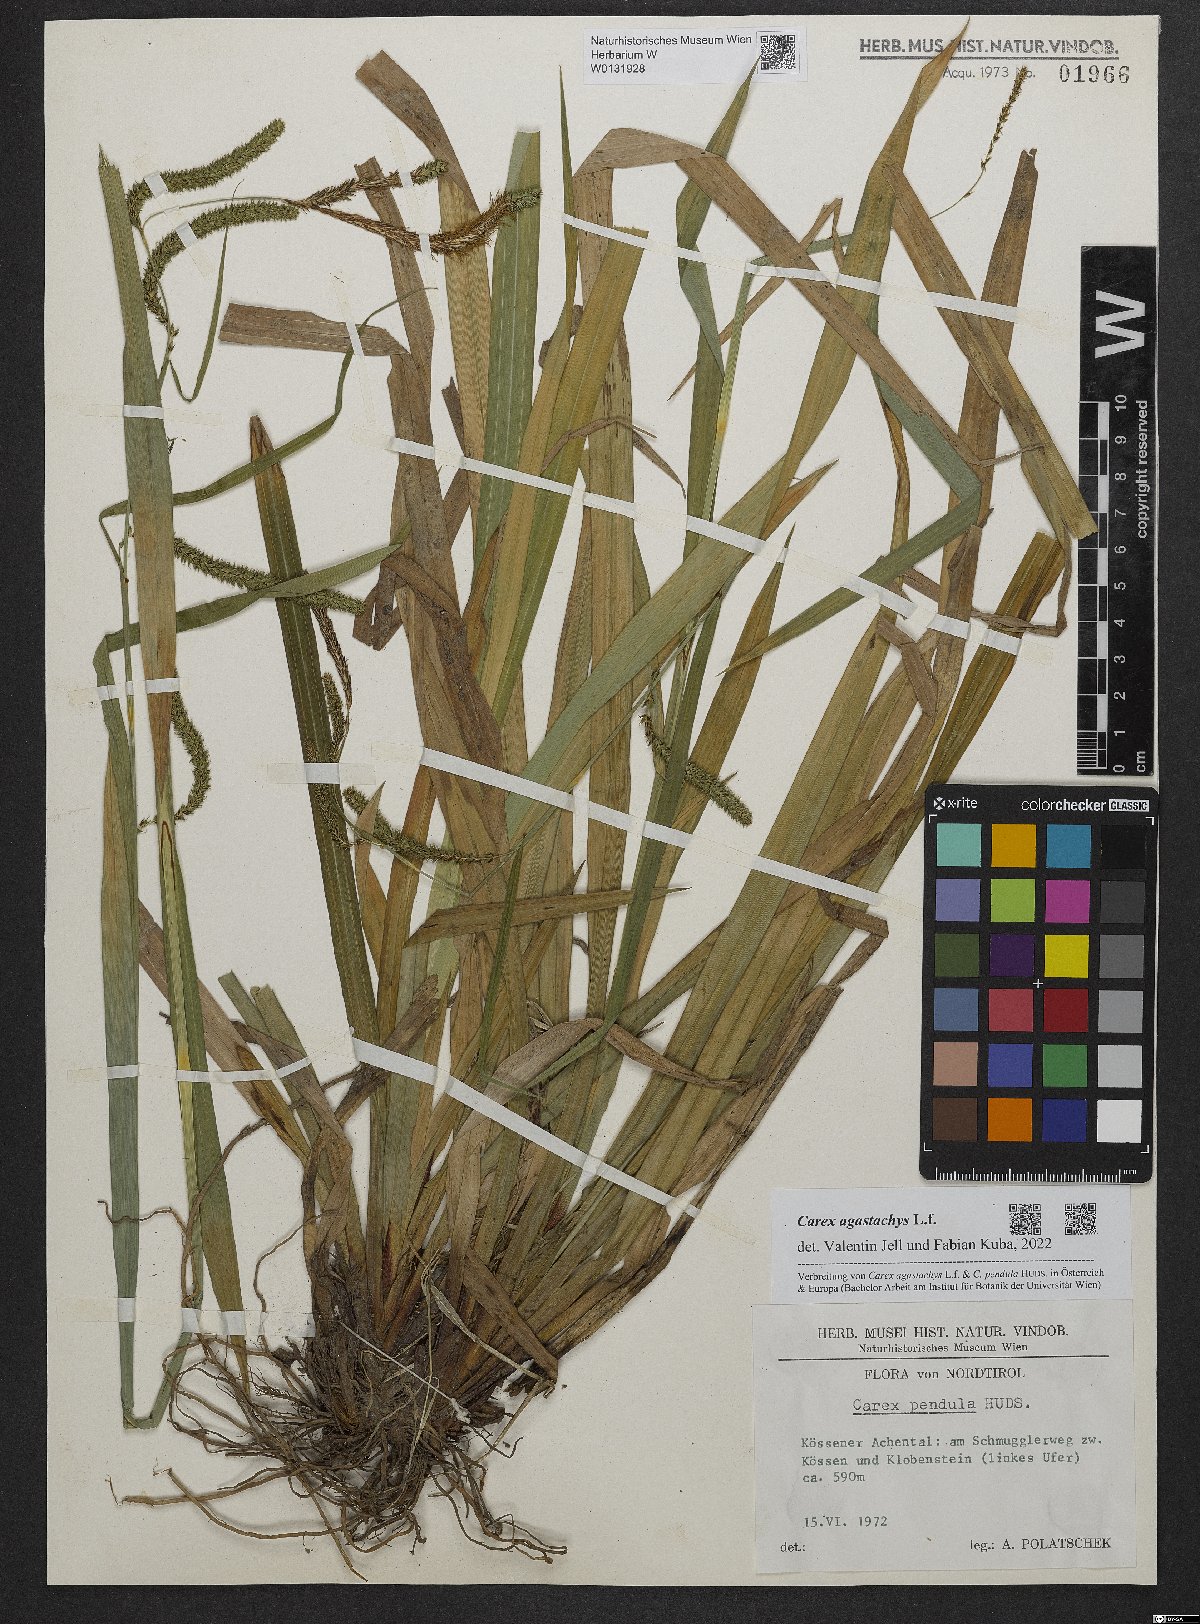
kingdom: Plantae
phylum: Tracheophyta
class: Liliopsida
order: Poales
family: Cyperaceae
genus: Carex
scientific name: Carex agastachys
